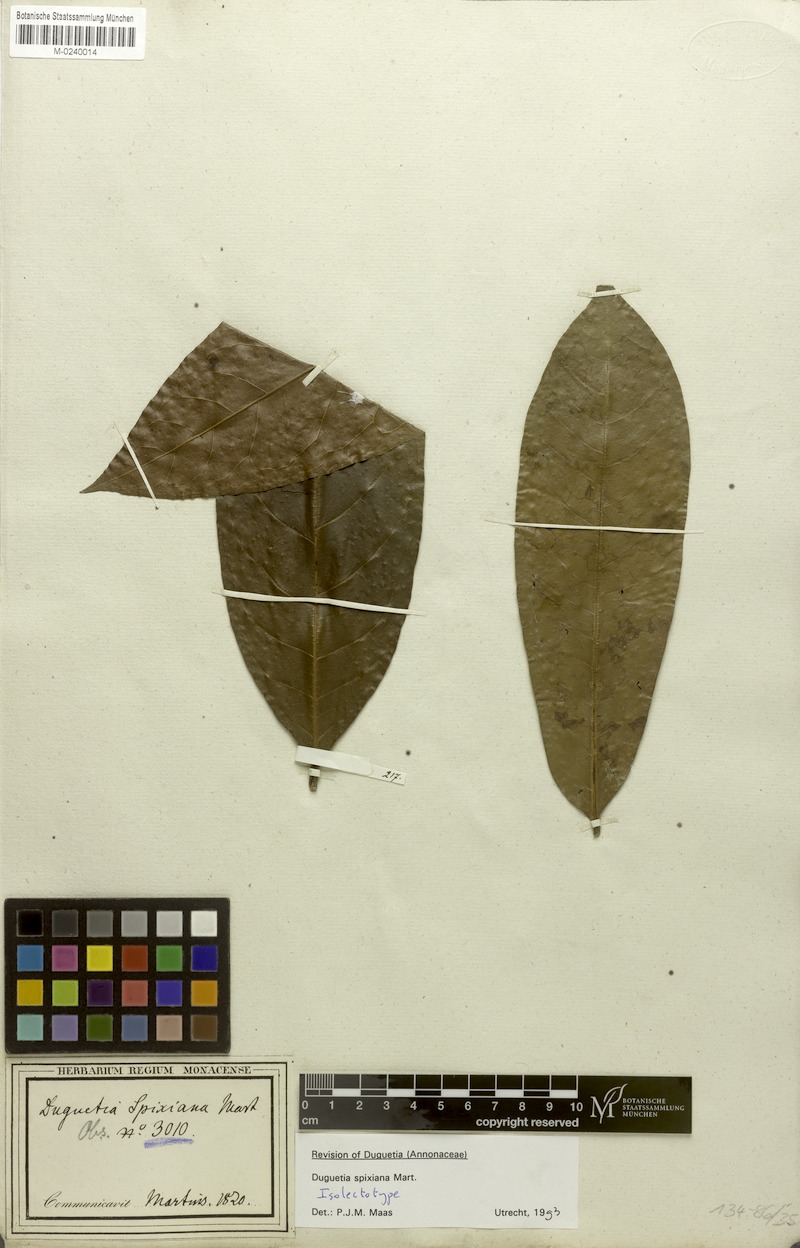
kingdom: Plantae
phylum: Tracheophyta
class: Magnoliopsida
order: Magnoliales
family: Annonaceae
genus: Duguetia
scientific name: Duguetia spixiana
